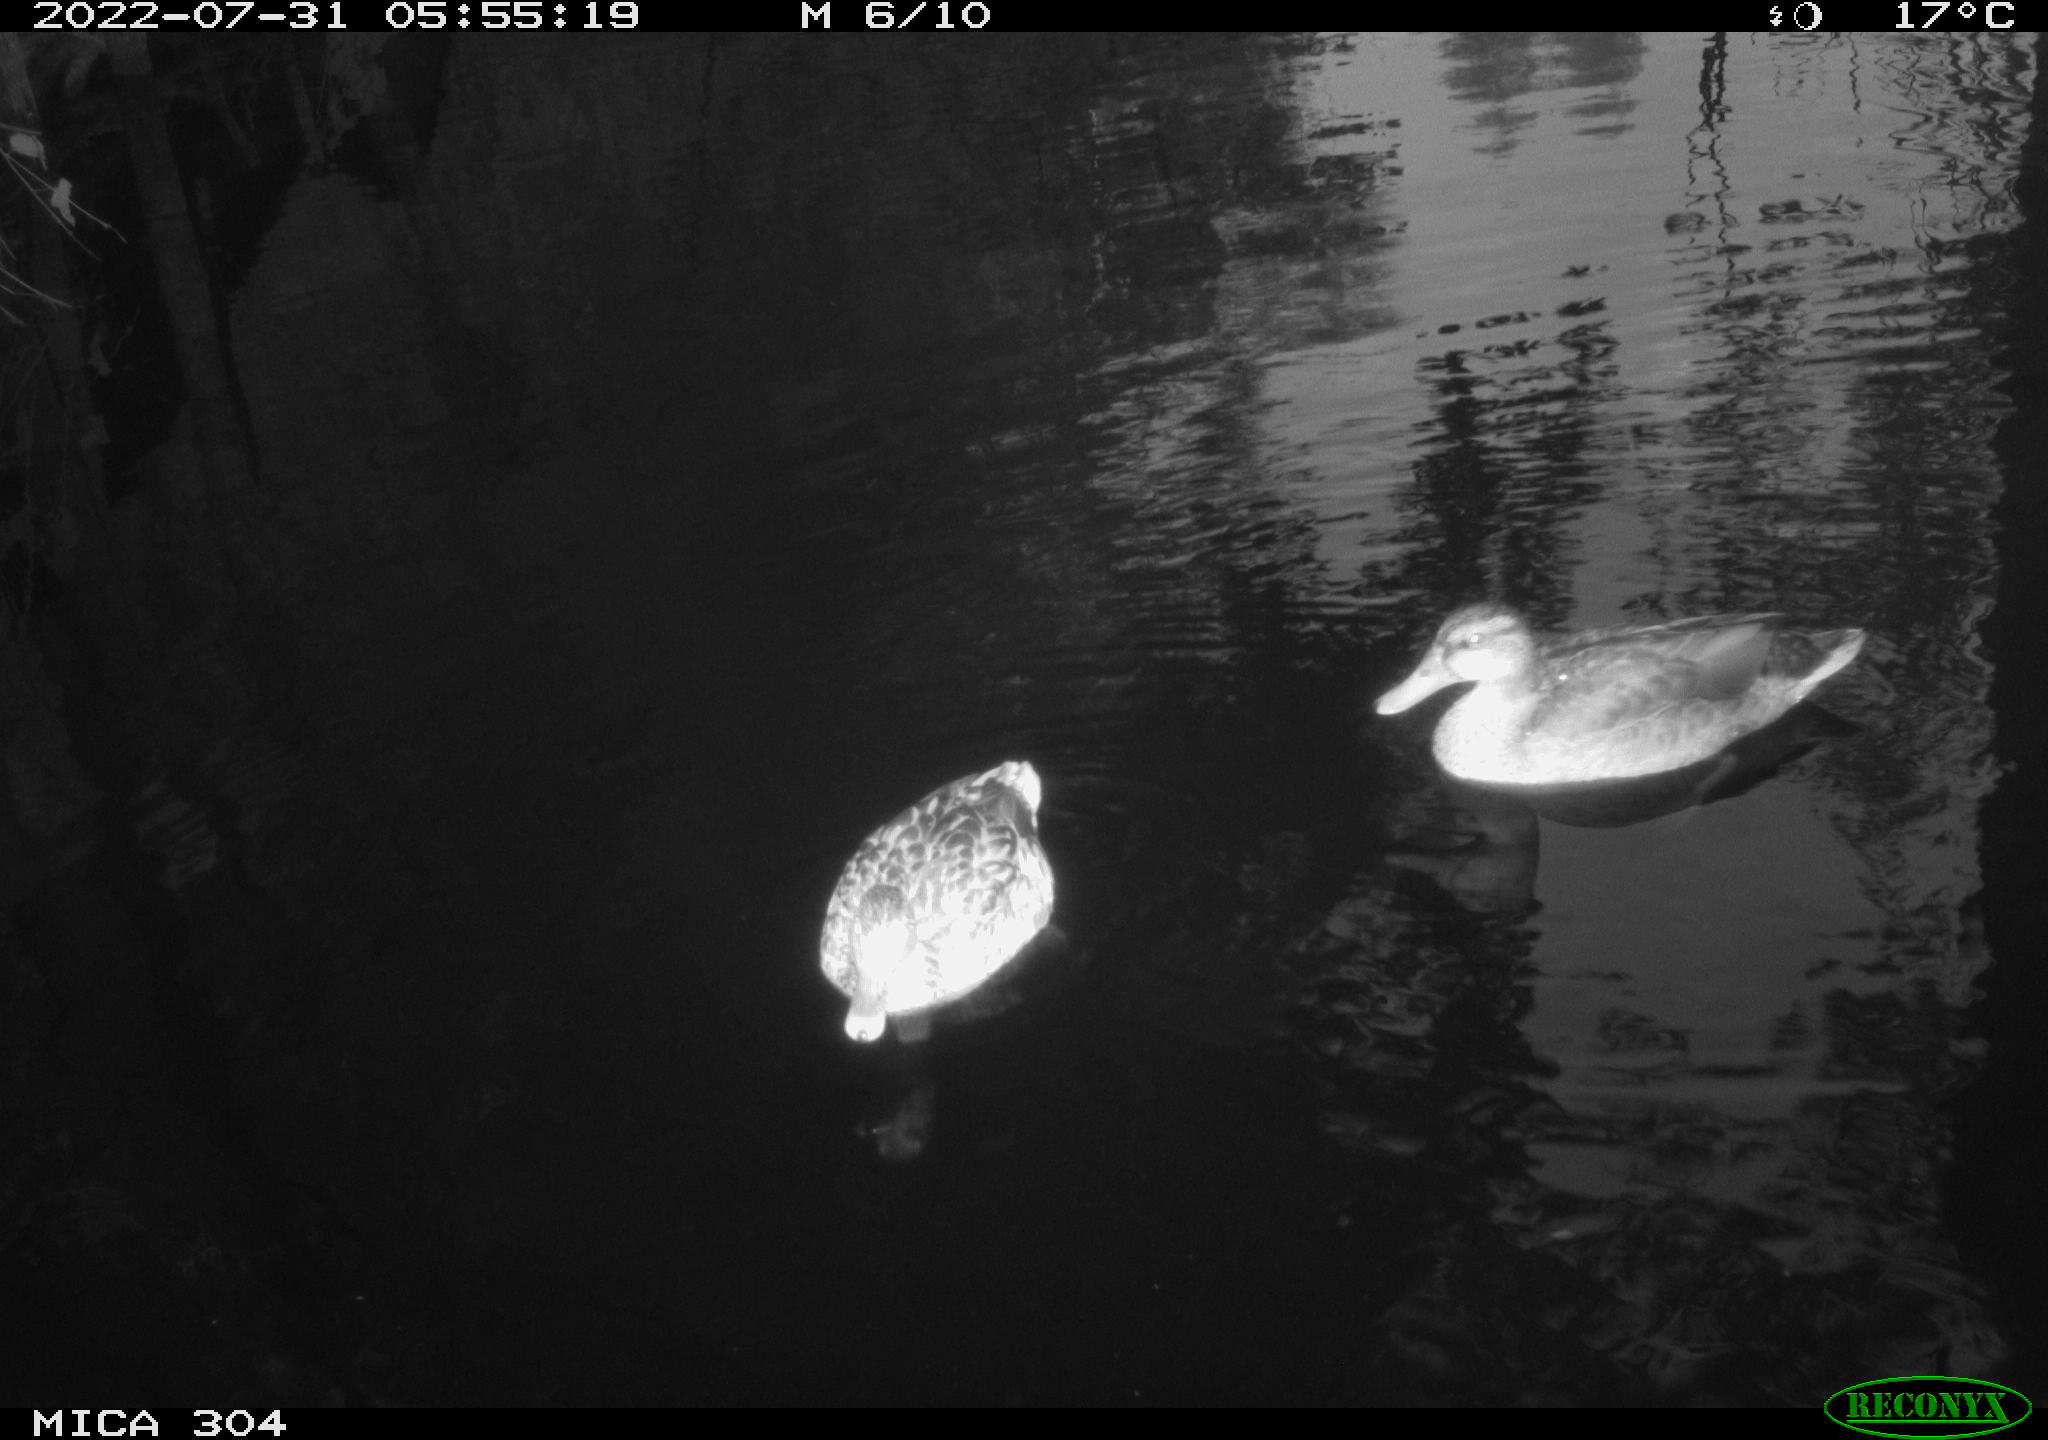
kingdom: Animalia
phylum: Chordata
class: Aves
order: Anseriformes
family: Anatidae
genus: Anas
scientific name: Anas platyrhynchos
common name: Mallard
